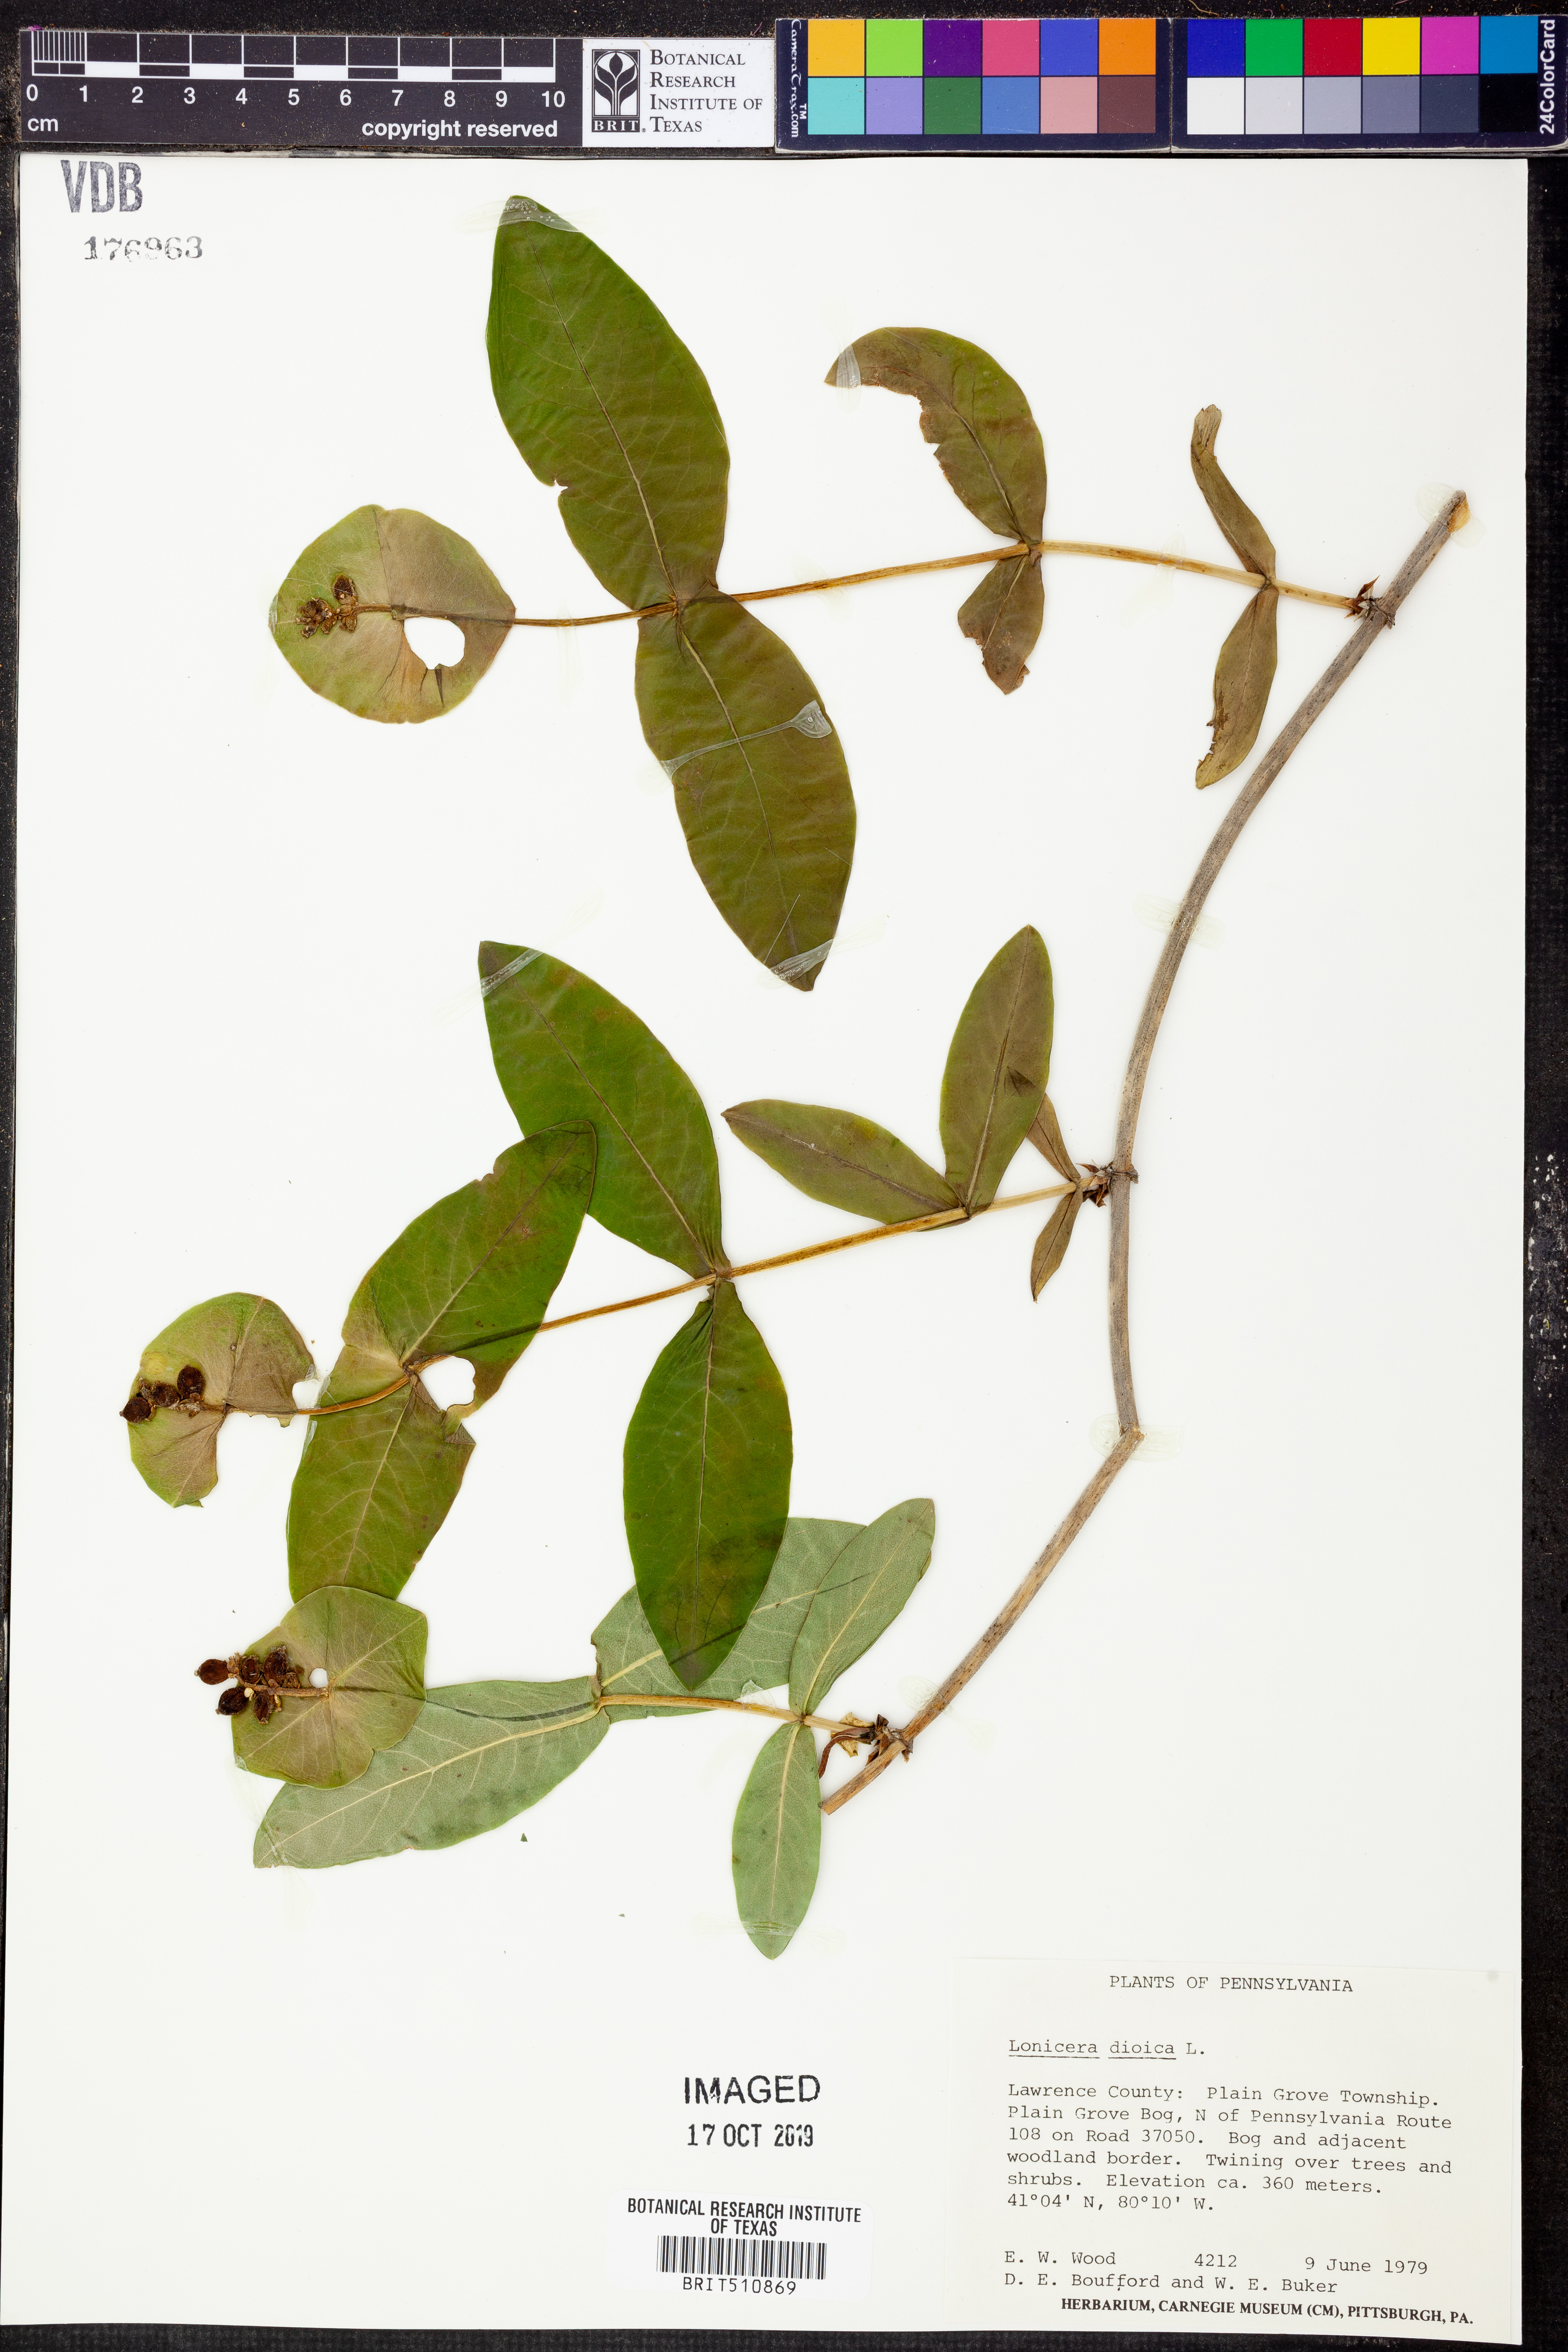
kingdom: Plantae
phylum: Tracheophyta
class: Magnoliopsida
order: Dipsacales
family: Caprifoliaceae
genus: Lonicera
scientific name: Lonicera dioica
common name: Limber honeysuckle
